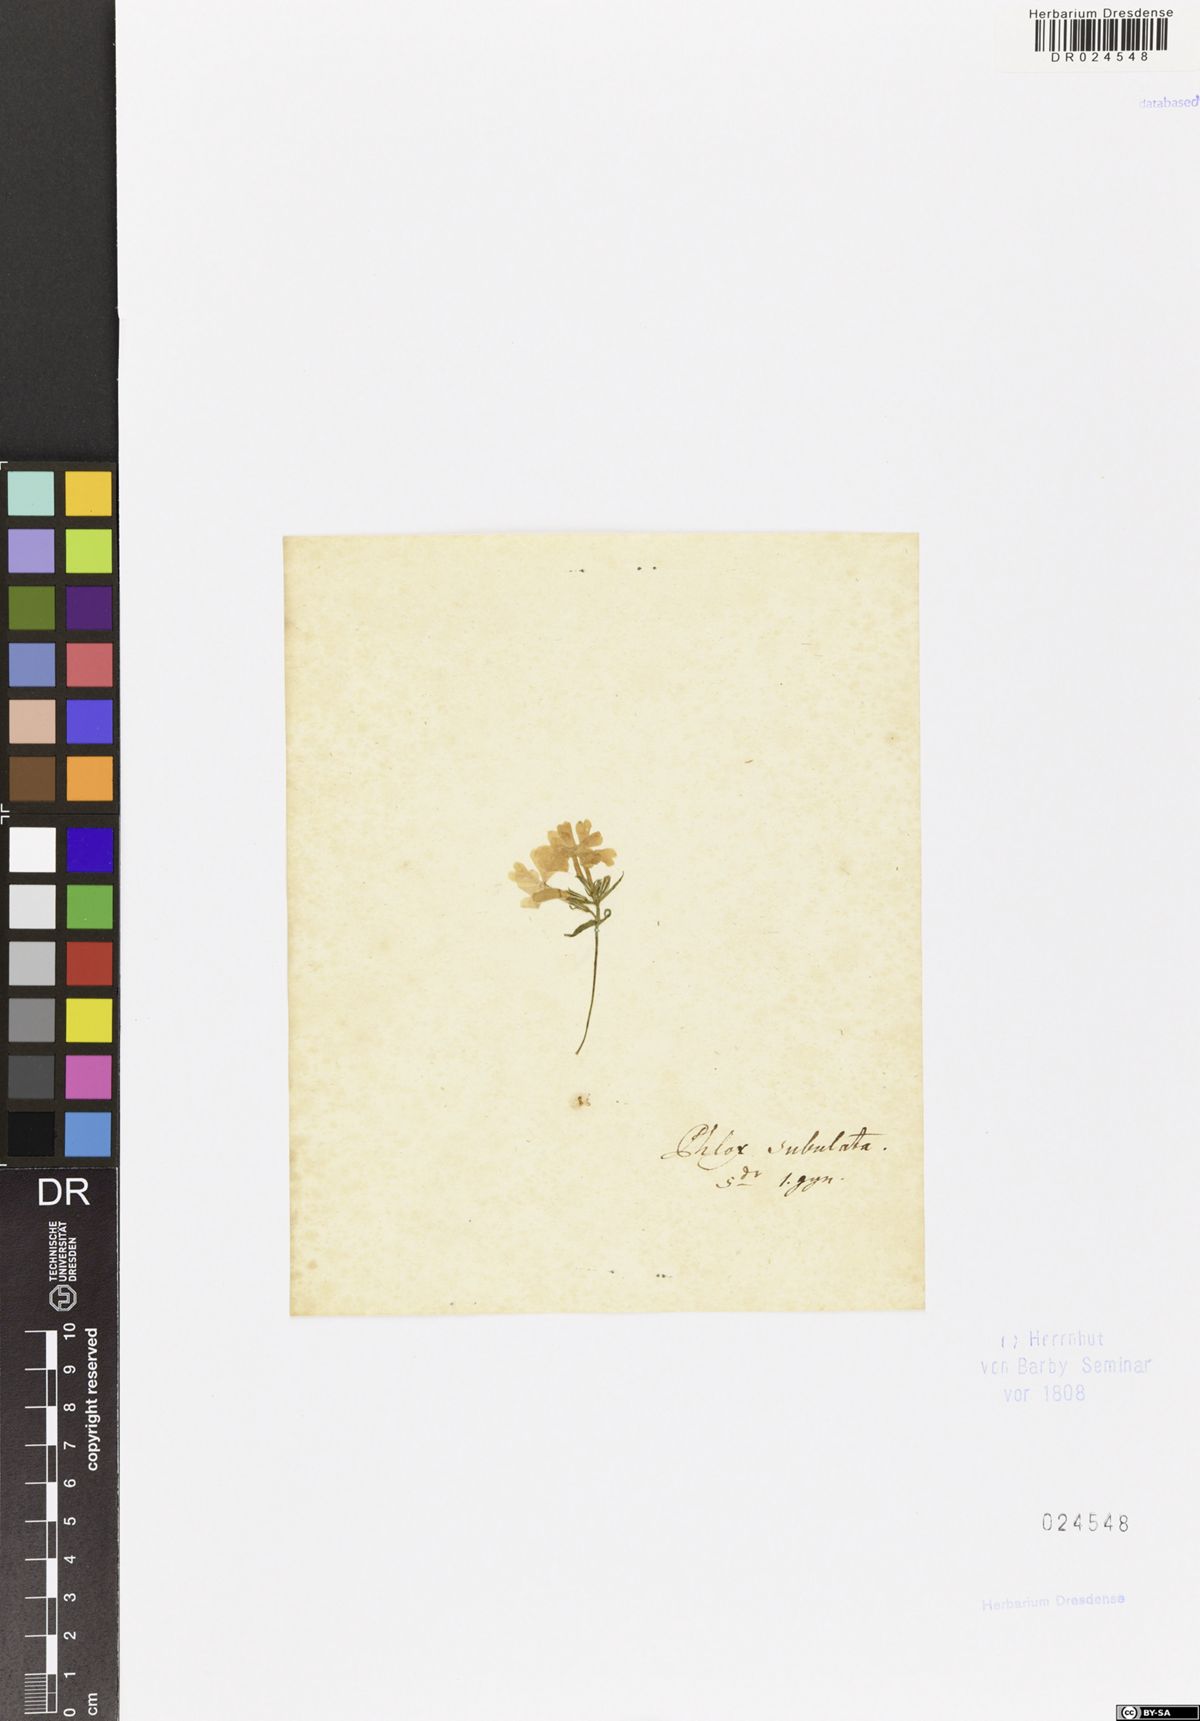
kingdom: Plantae
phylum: Tracheophyta
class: Magnoliopsida
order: Ericales
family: Polemoniaceae
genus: Phlox
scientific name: Phlox subulata
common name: Moss phlox
